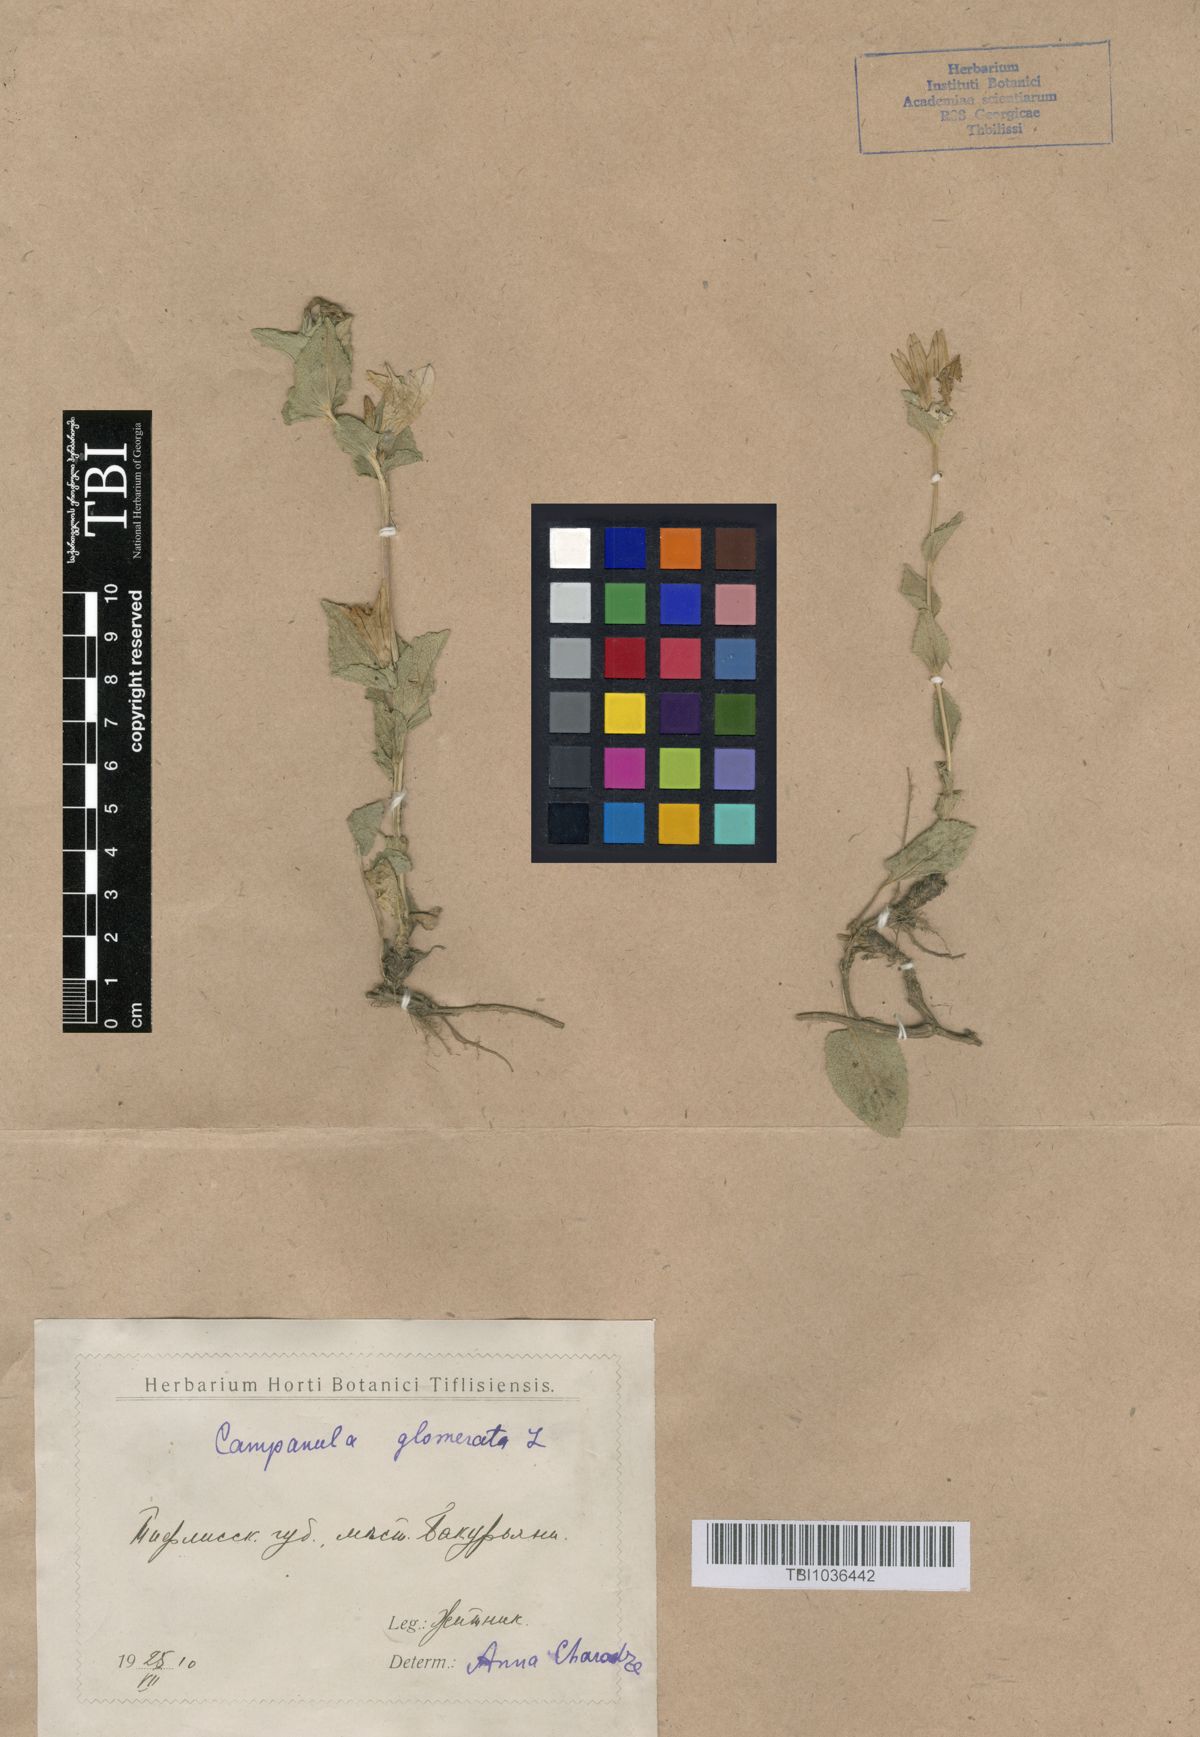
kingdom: Plantae
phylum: Tracheophyta
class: Magnoliopsida
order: Asterales
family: Campanulaceae
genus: Campanula
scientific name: Campanula glomerata
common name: Clustered bellflower
